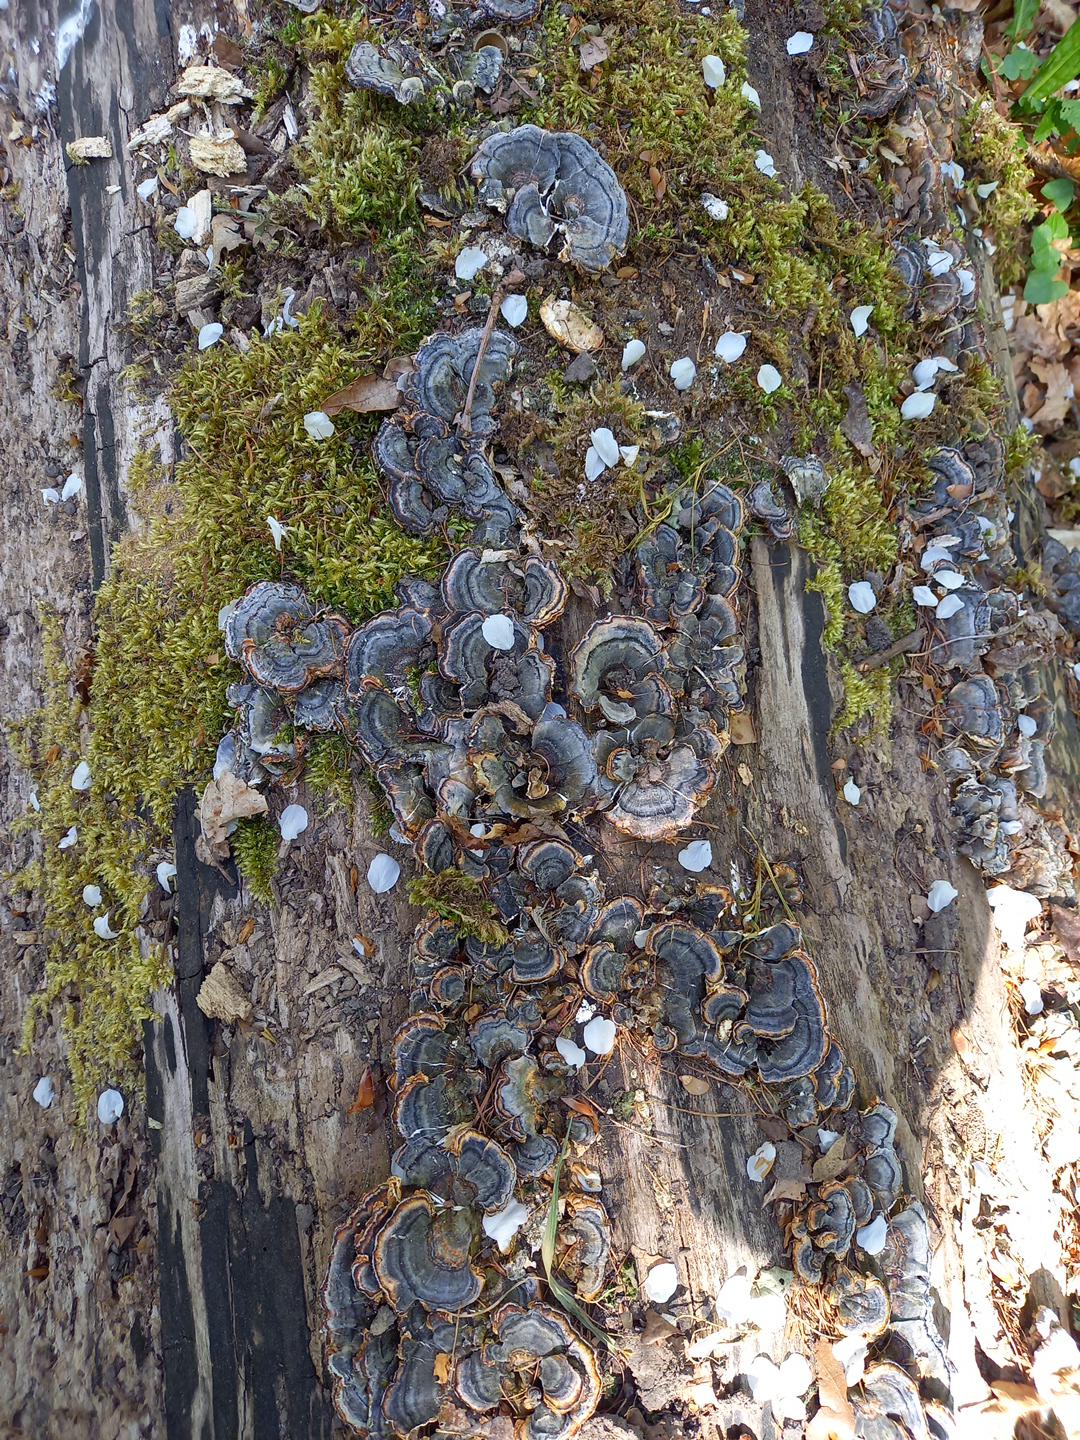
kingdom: Fungi
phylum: Basidiomycota
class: Agaricomycetes
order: Polyporales
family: Polyporaceae
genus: Trametes
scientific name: Trametes versicolor
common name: broget læderporesvamp
